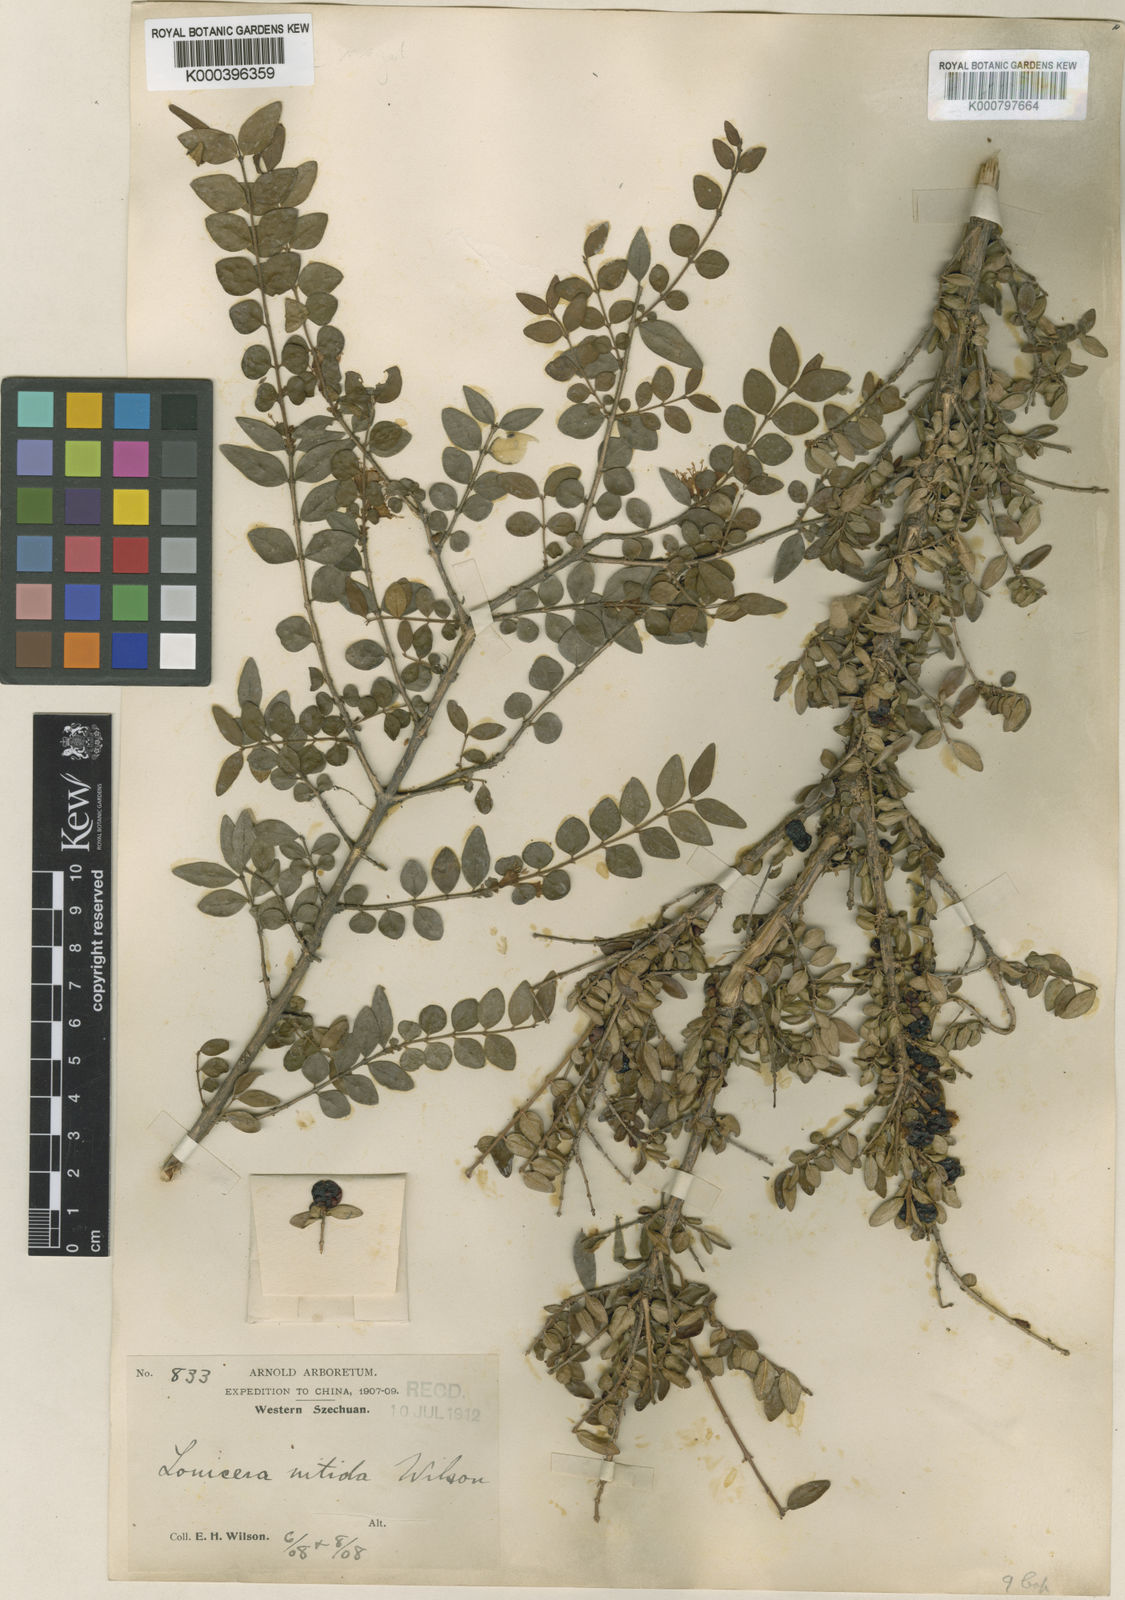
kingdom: Plantae
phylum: Tracheophyta
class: Magnoliopsida
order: Dipsacales
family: Caprifoliaceae
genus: Lonicera
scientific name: Lonicera pileata
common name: Box-leaved honeysuckle
